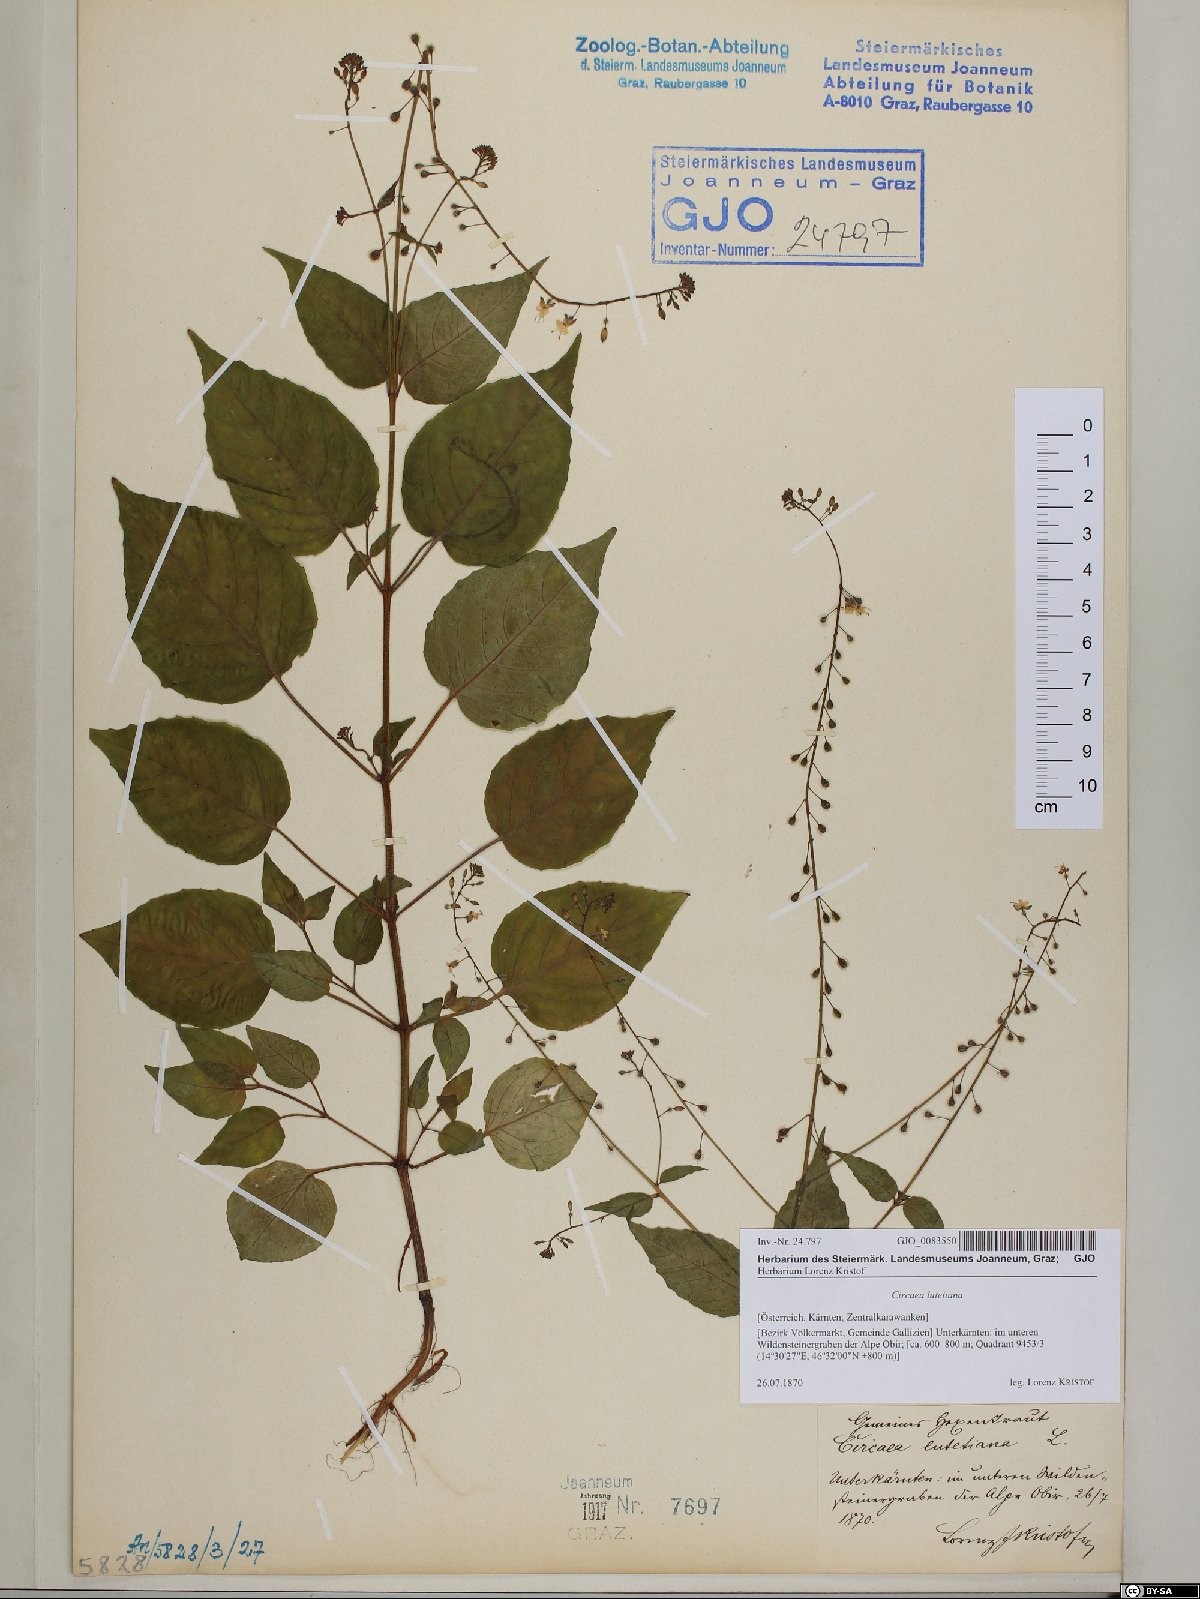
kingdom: Plantae
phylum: Tracheophyta
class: Magnoliopsida
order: Myrtales
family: Onagraceae
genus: Circaea
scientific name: Circaea lutetiana
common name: Enchanter's-nightshade
